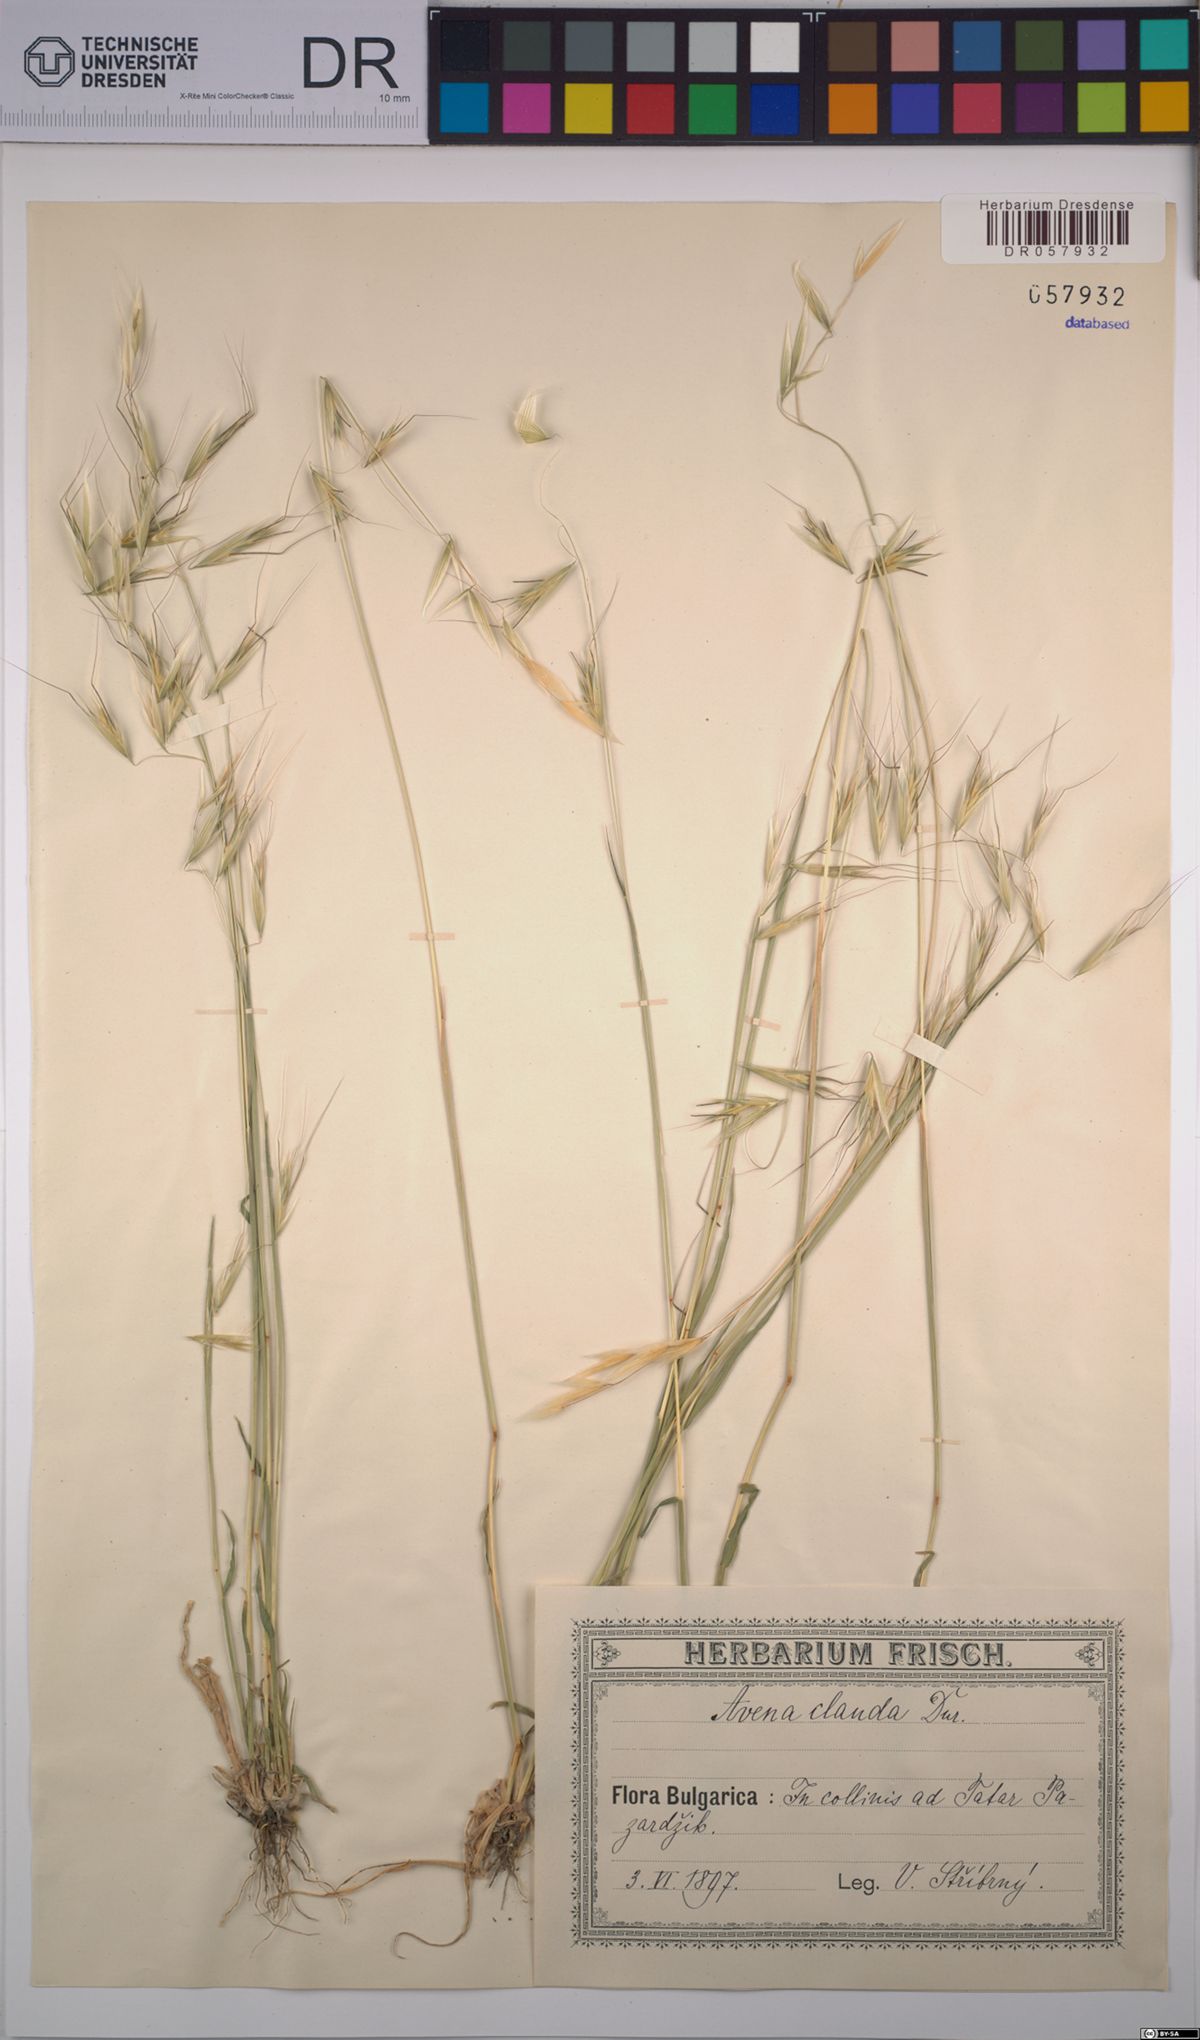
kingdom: Plantae
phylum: Tracheophyta
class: Liliopsida
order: Poales
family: Poaceae
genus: Avena
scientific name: Avena clauda
